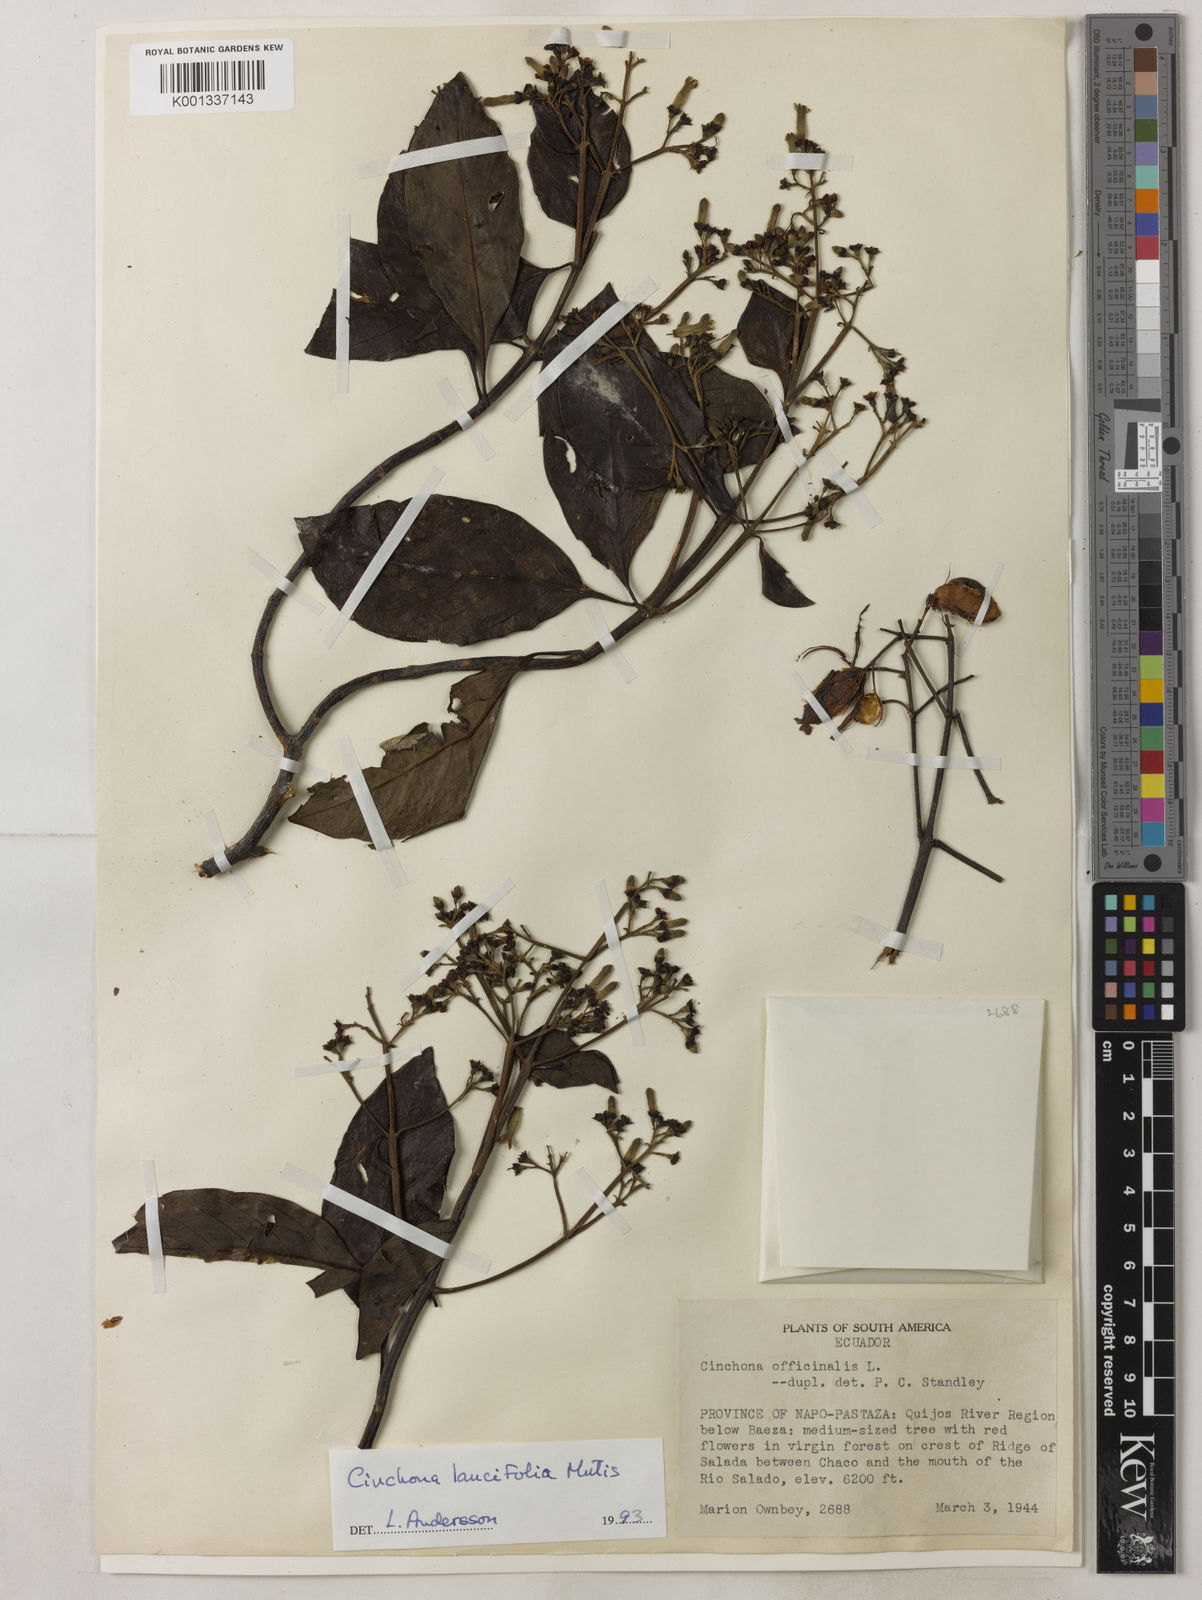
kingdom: Plantae
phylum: Tracheophyta
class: Magnoliopsida
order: Gentianales
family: Rubiaceae
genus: Cinchona
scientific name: Cinchona lancifolia
